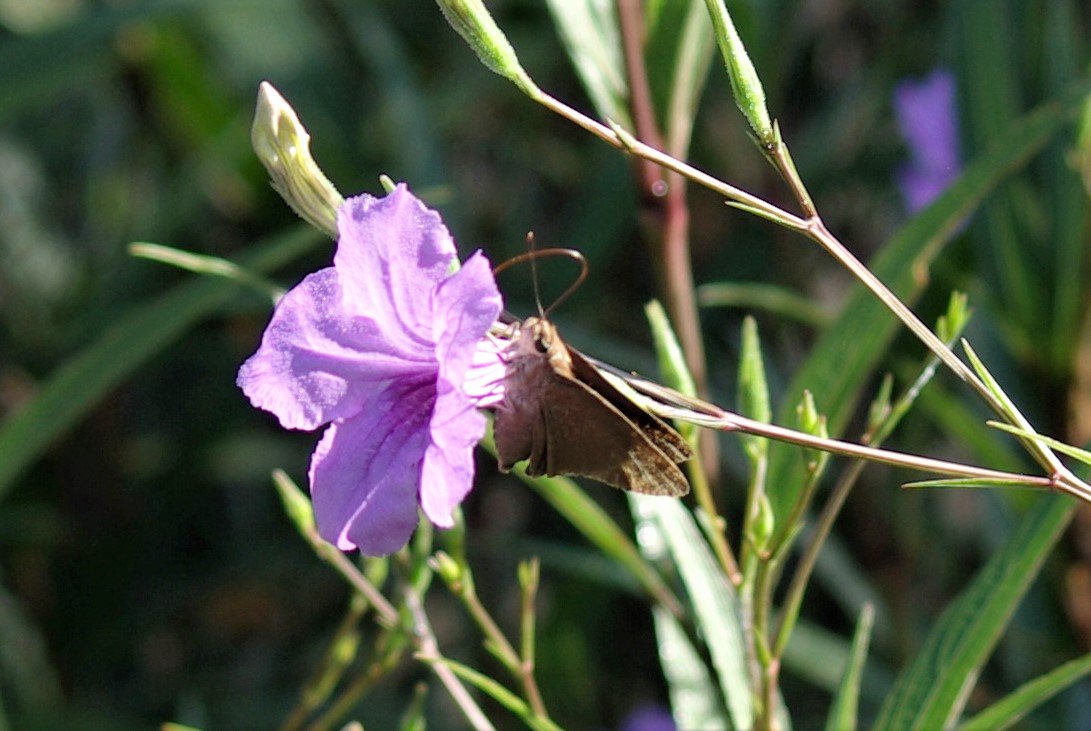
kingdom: Animalia
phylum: Arthropoda
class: Insecta
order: Lepidoptera
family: Hesperiidae
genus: Asbolis
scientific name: Asbolis capucinus
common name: Monk Skipper
